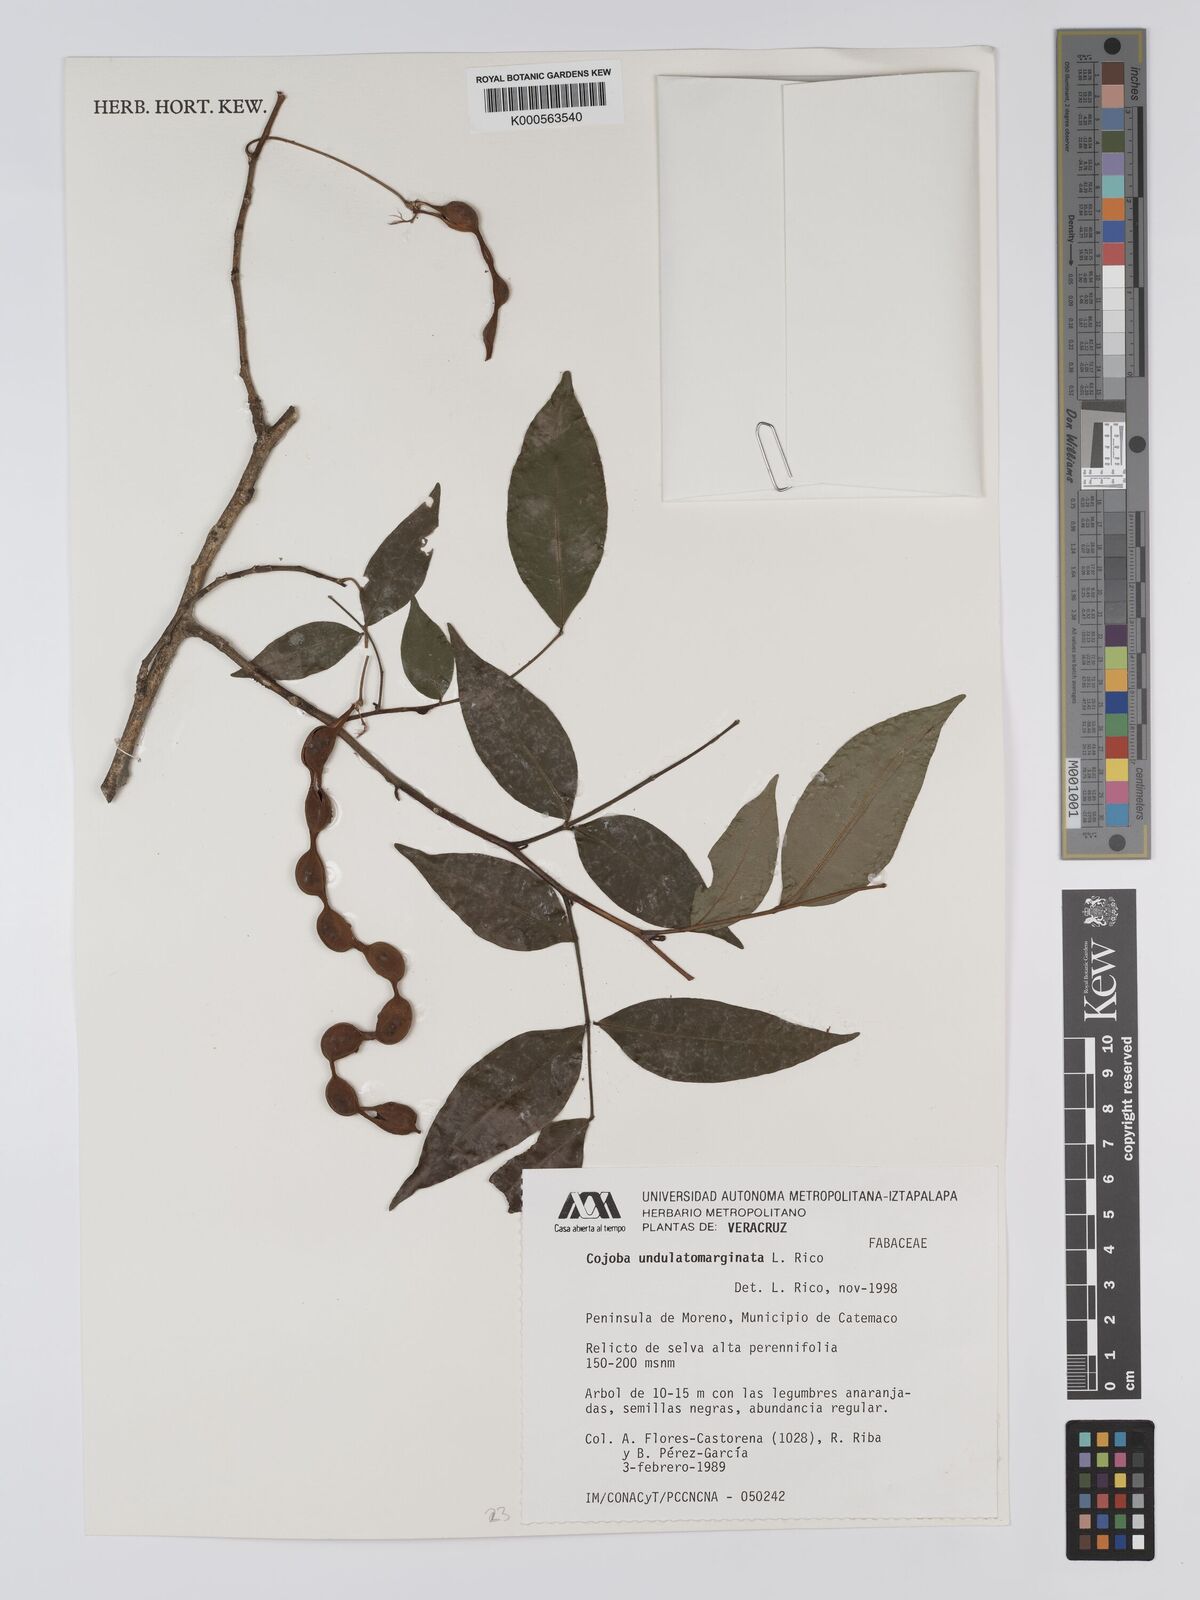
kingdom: Plantae
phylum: Tracheophyta
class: Magnoliopsida
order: Fabales
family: Fabaceae
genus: Cojoba
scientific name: Cojoba rufescens
